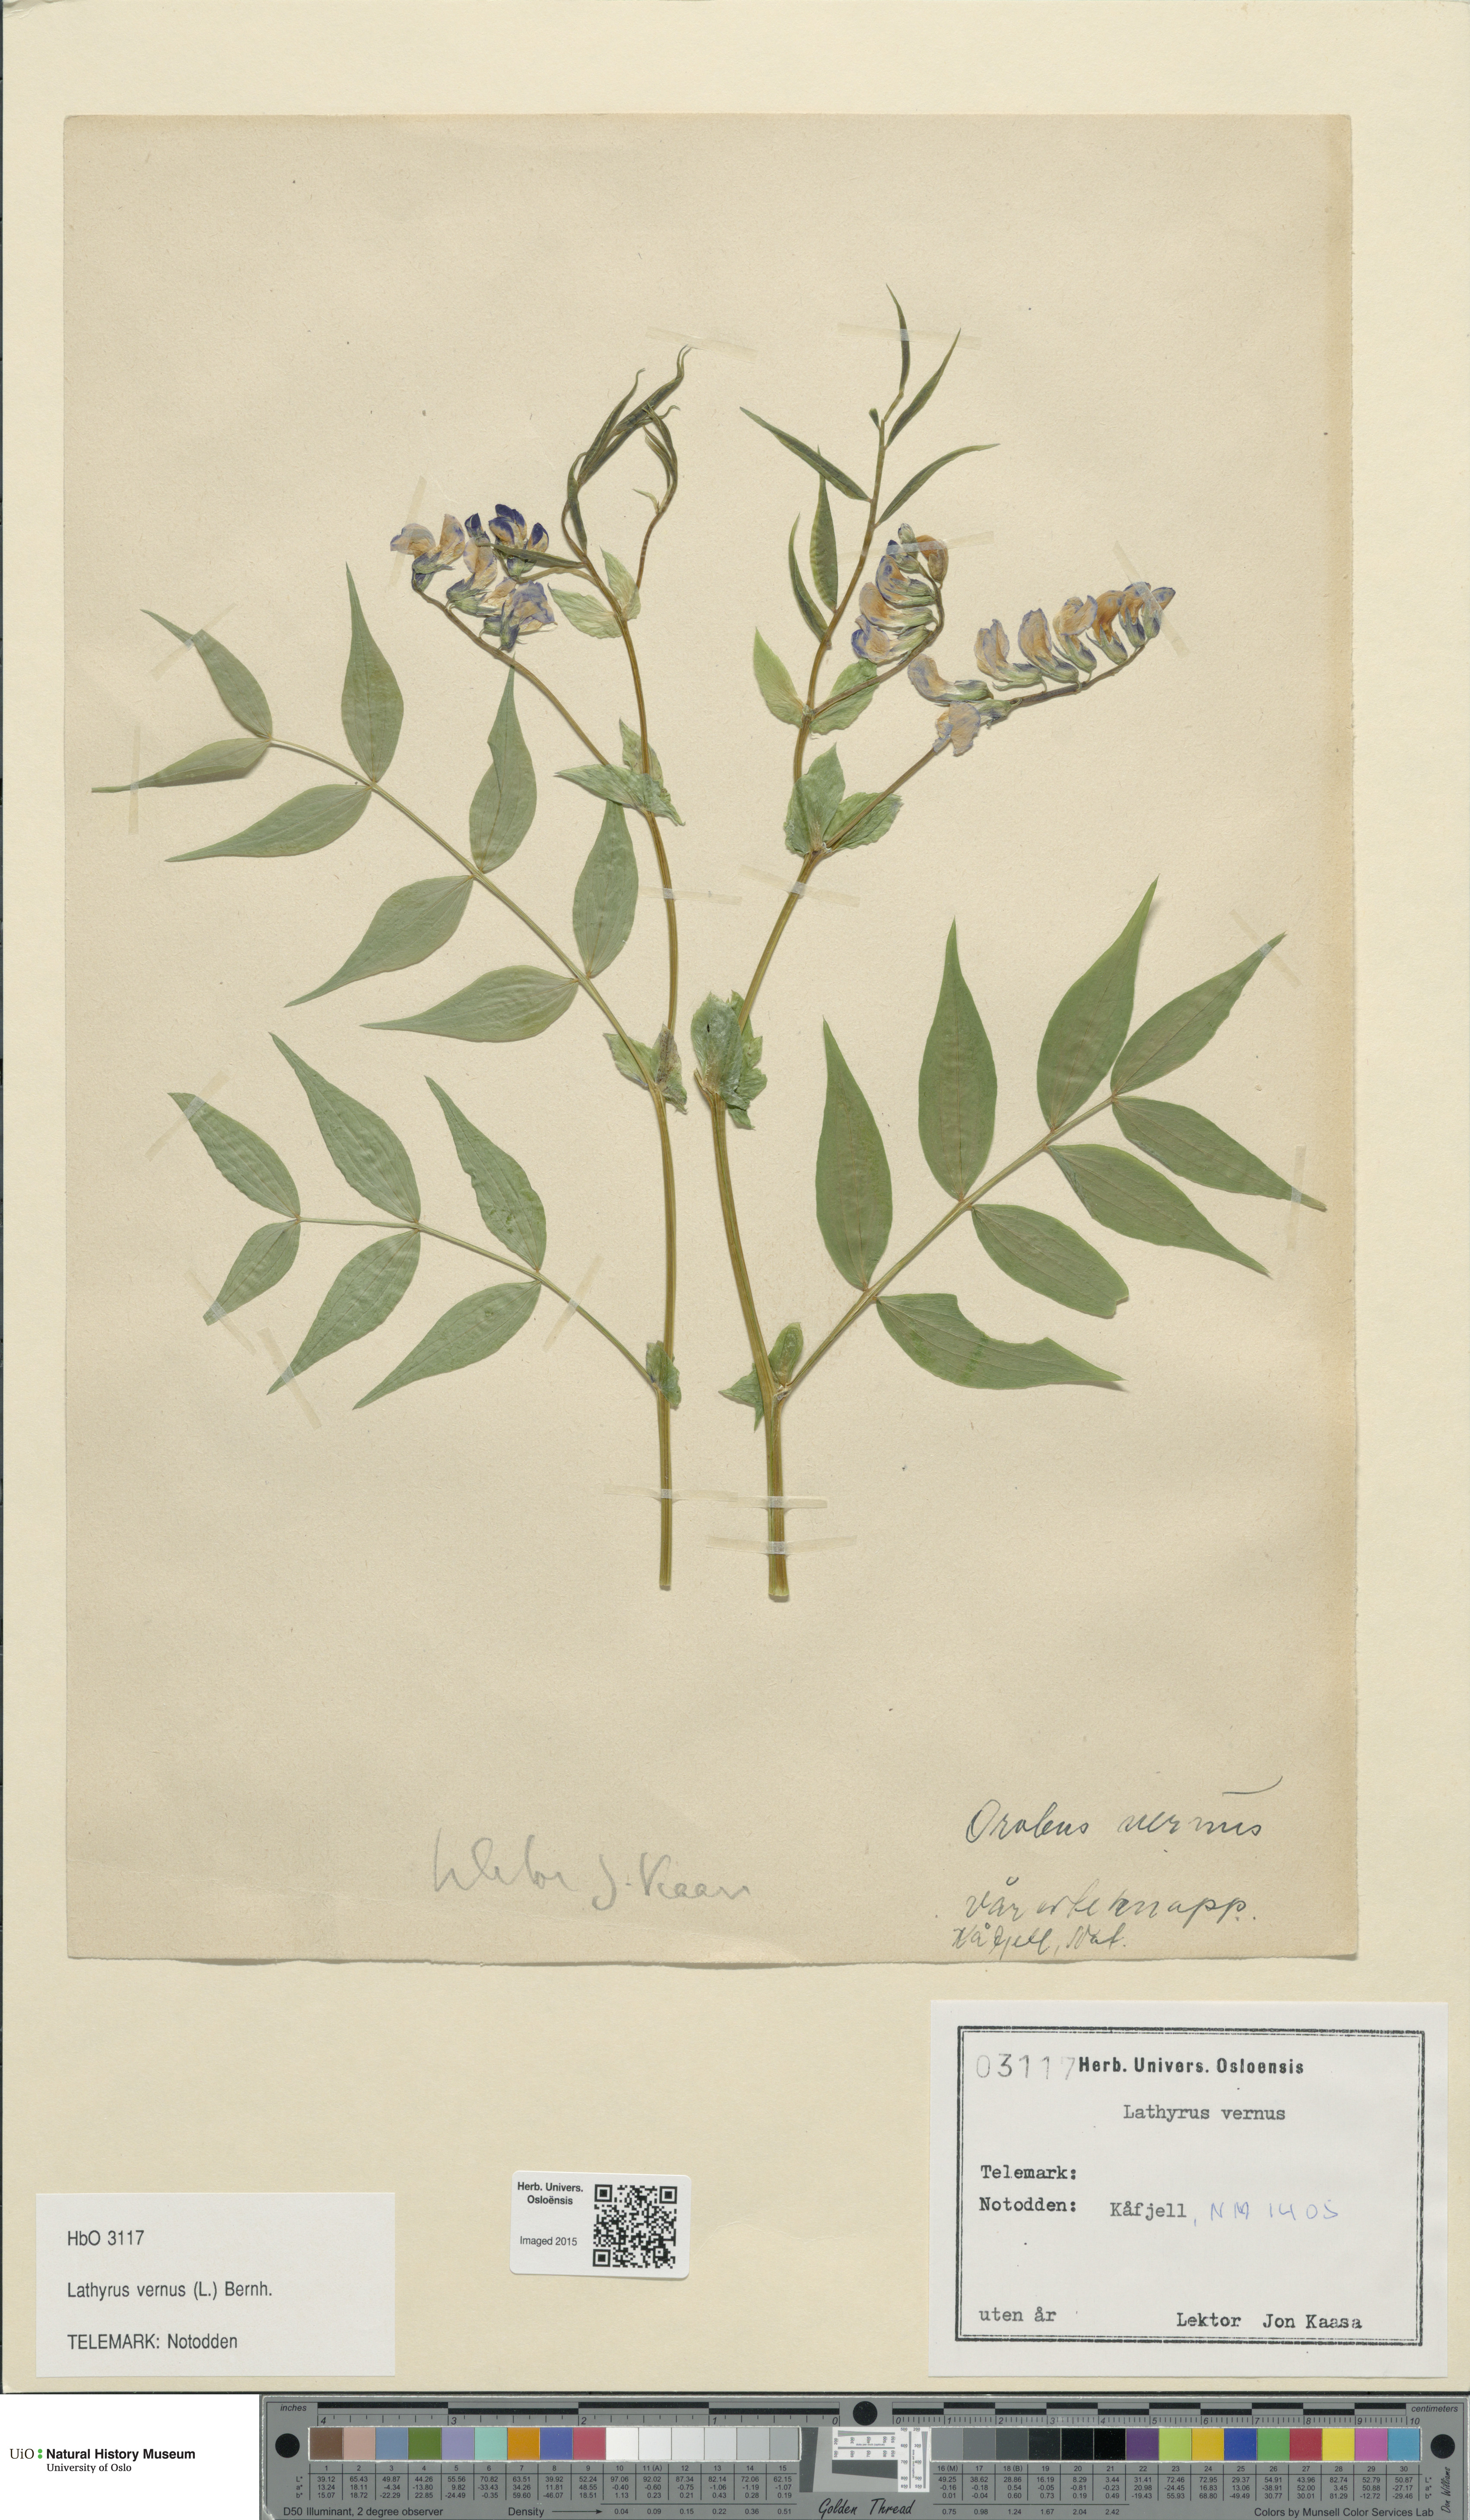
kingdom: Plantae
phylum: Tracheophyta
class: Magnoliopsida
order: Fabales
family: Fabaceae
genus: Lathyrus
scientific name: Lathyrus vernus
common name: Spring pea
